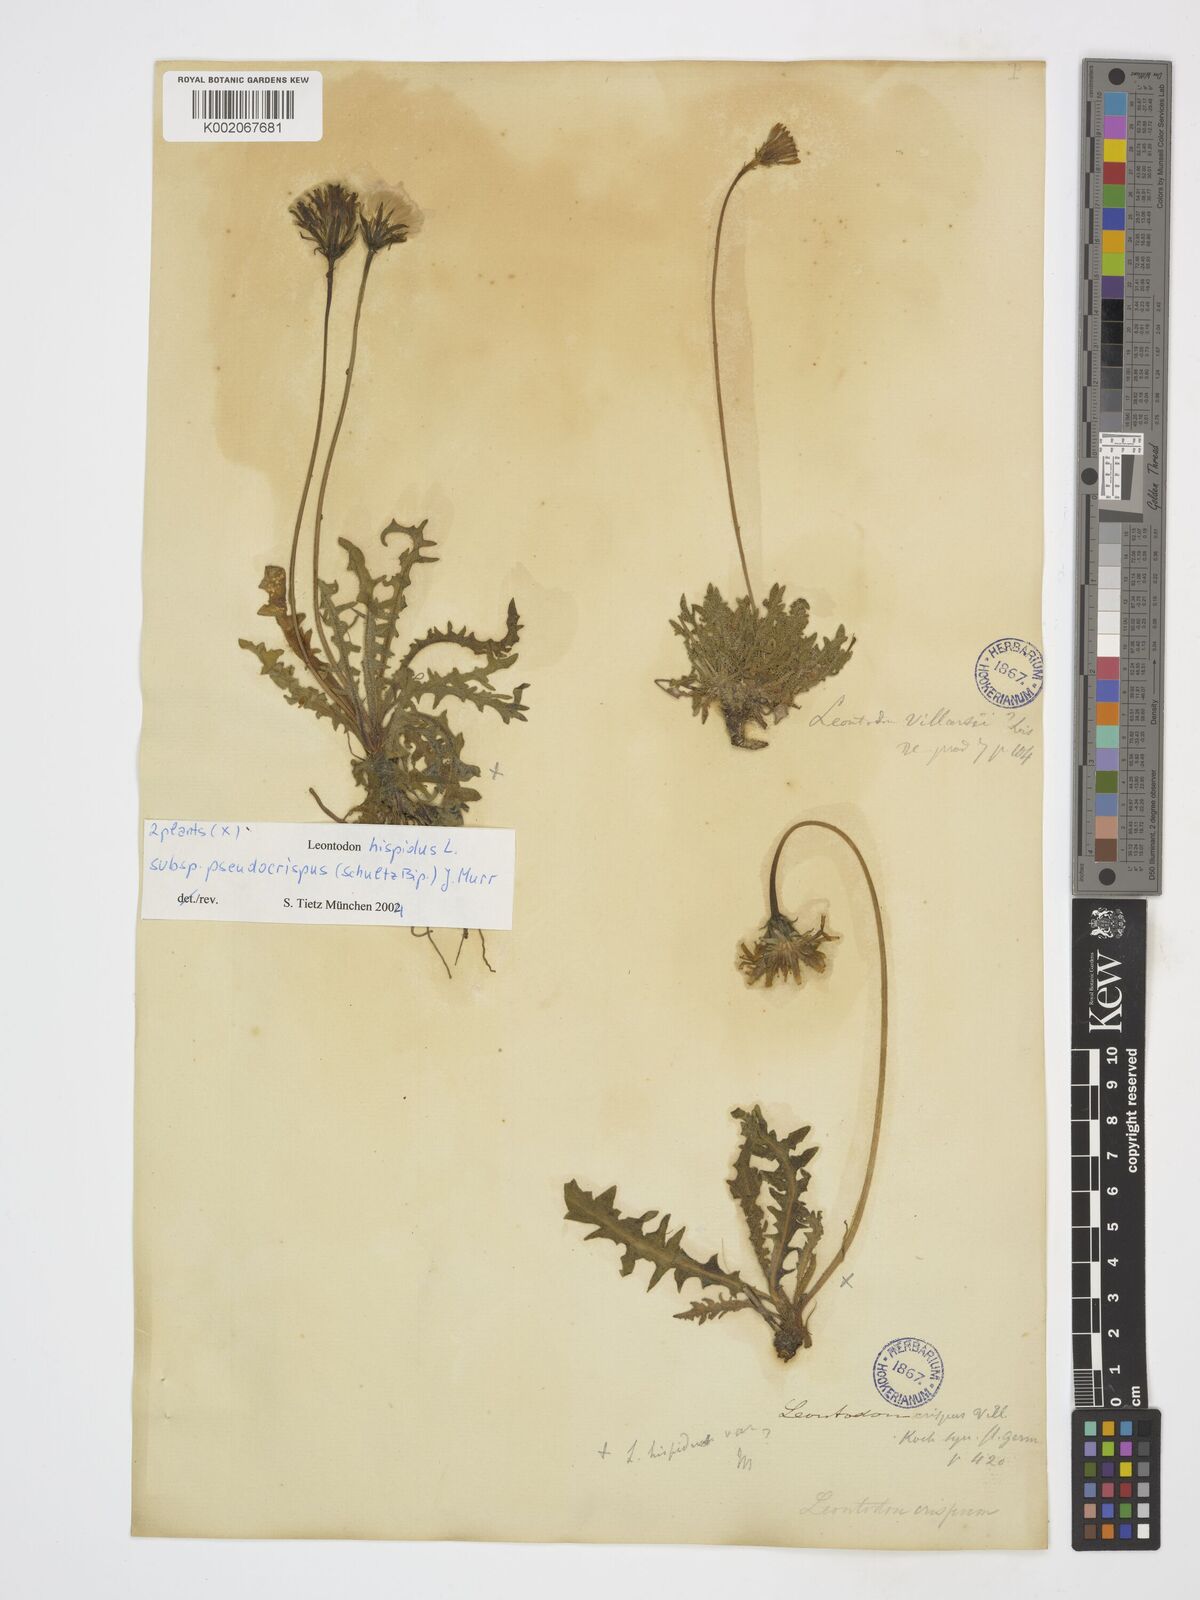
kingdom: Plantae
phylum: Tracheophyta
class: Magnoliopsida
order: Asterales
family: Asteraceae
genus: Leontodon
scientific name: Leontodon hyoseroides
